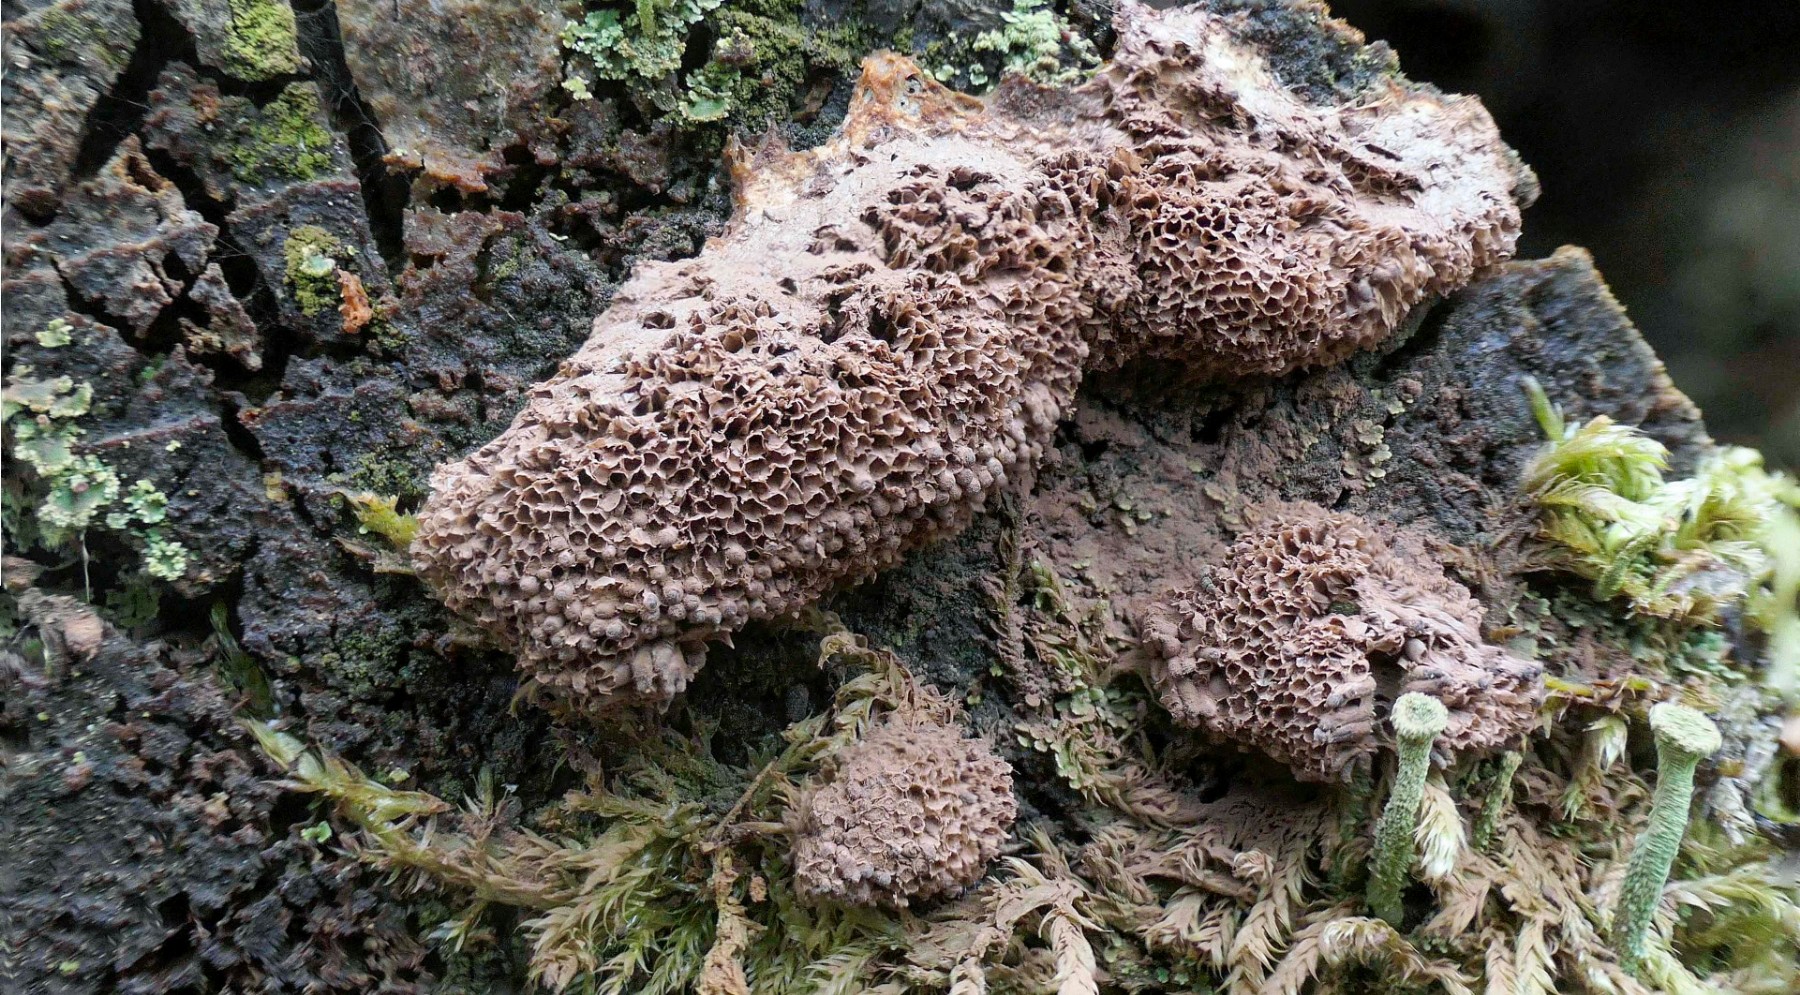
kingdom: Protozoa
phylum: Mycetozoa
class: Myxomycetes
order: Cribrariales
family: Tubiferaceae
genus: Tubifera
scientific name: Tubifera ferruginosa
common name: kanel-støvrør
